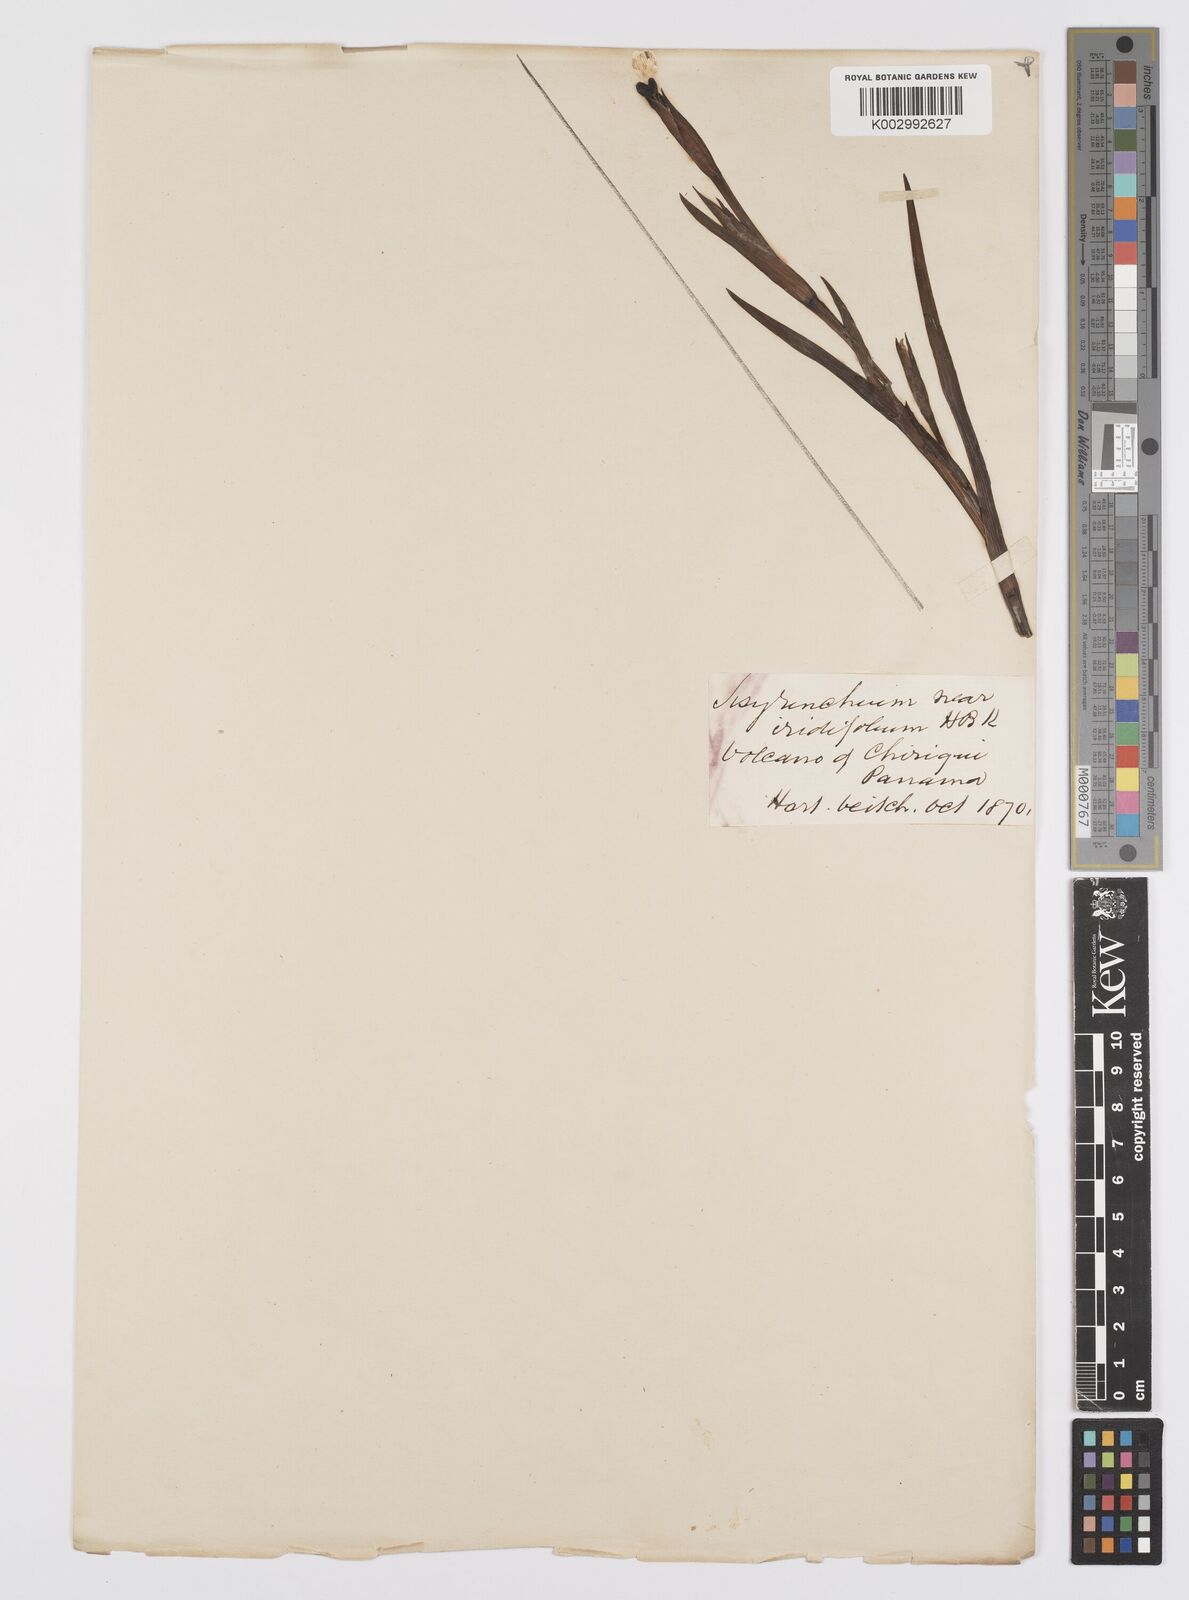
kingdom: Plantae
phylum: Tracheophyta
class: Liliopsida
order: Asparagales
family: Iridaceae
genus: Sisyrinchium
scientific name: Sisyrinchium
